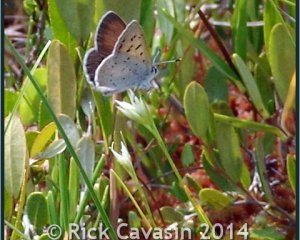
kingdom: Animalia
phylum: Arthropoda
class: Insecta
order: Lepidoptera
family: Sesiidae
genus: Sesia
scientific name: Sesia Lycaena epixanthe
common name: Bog Copper
